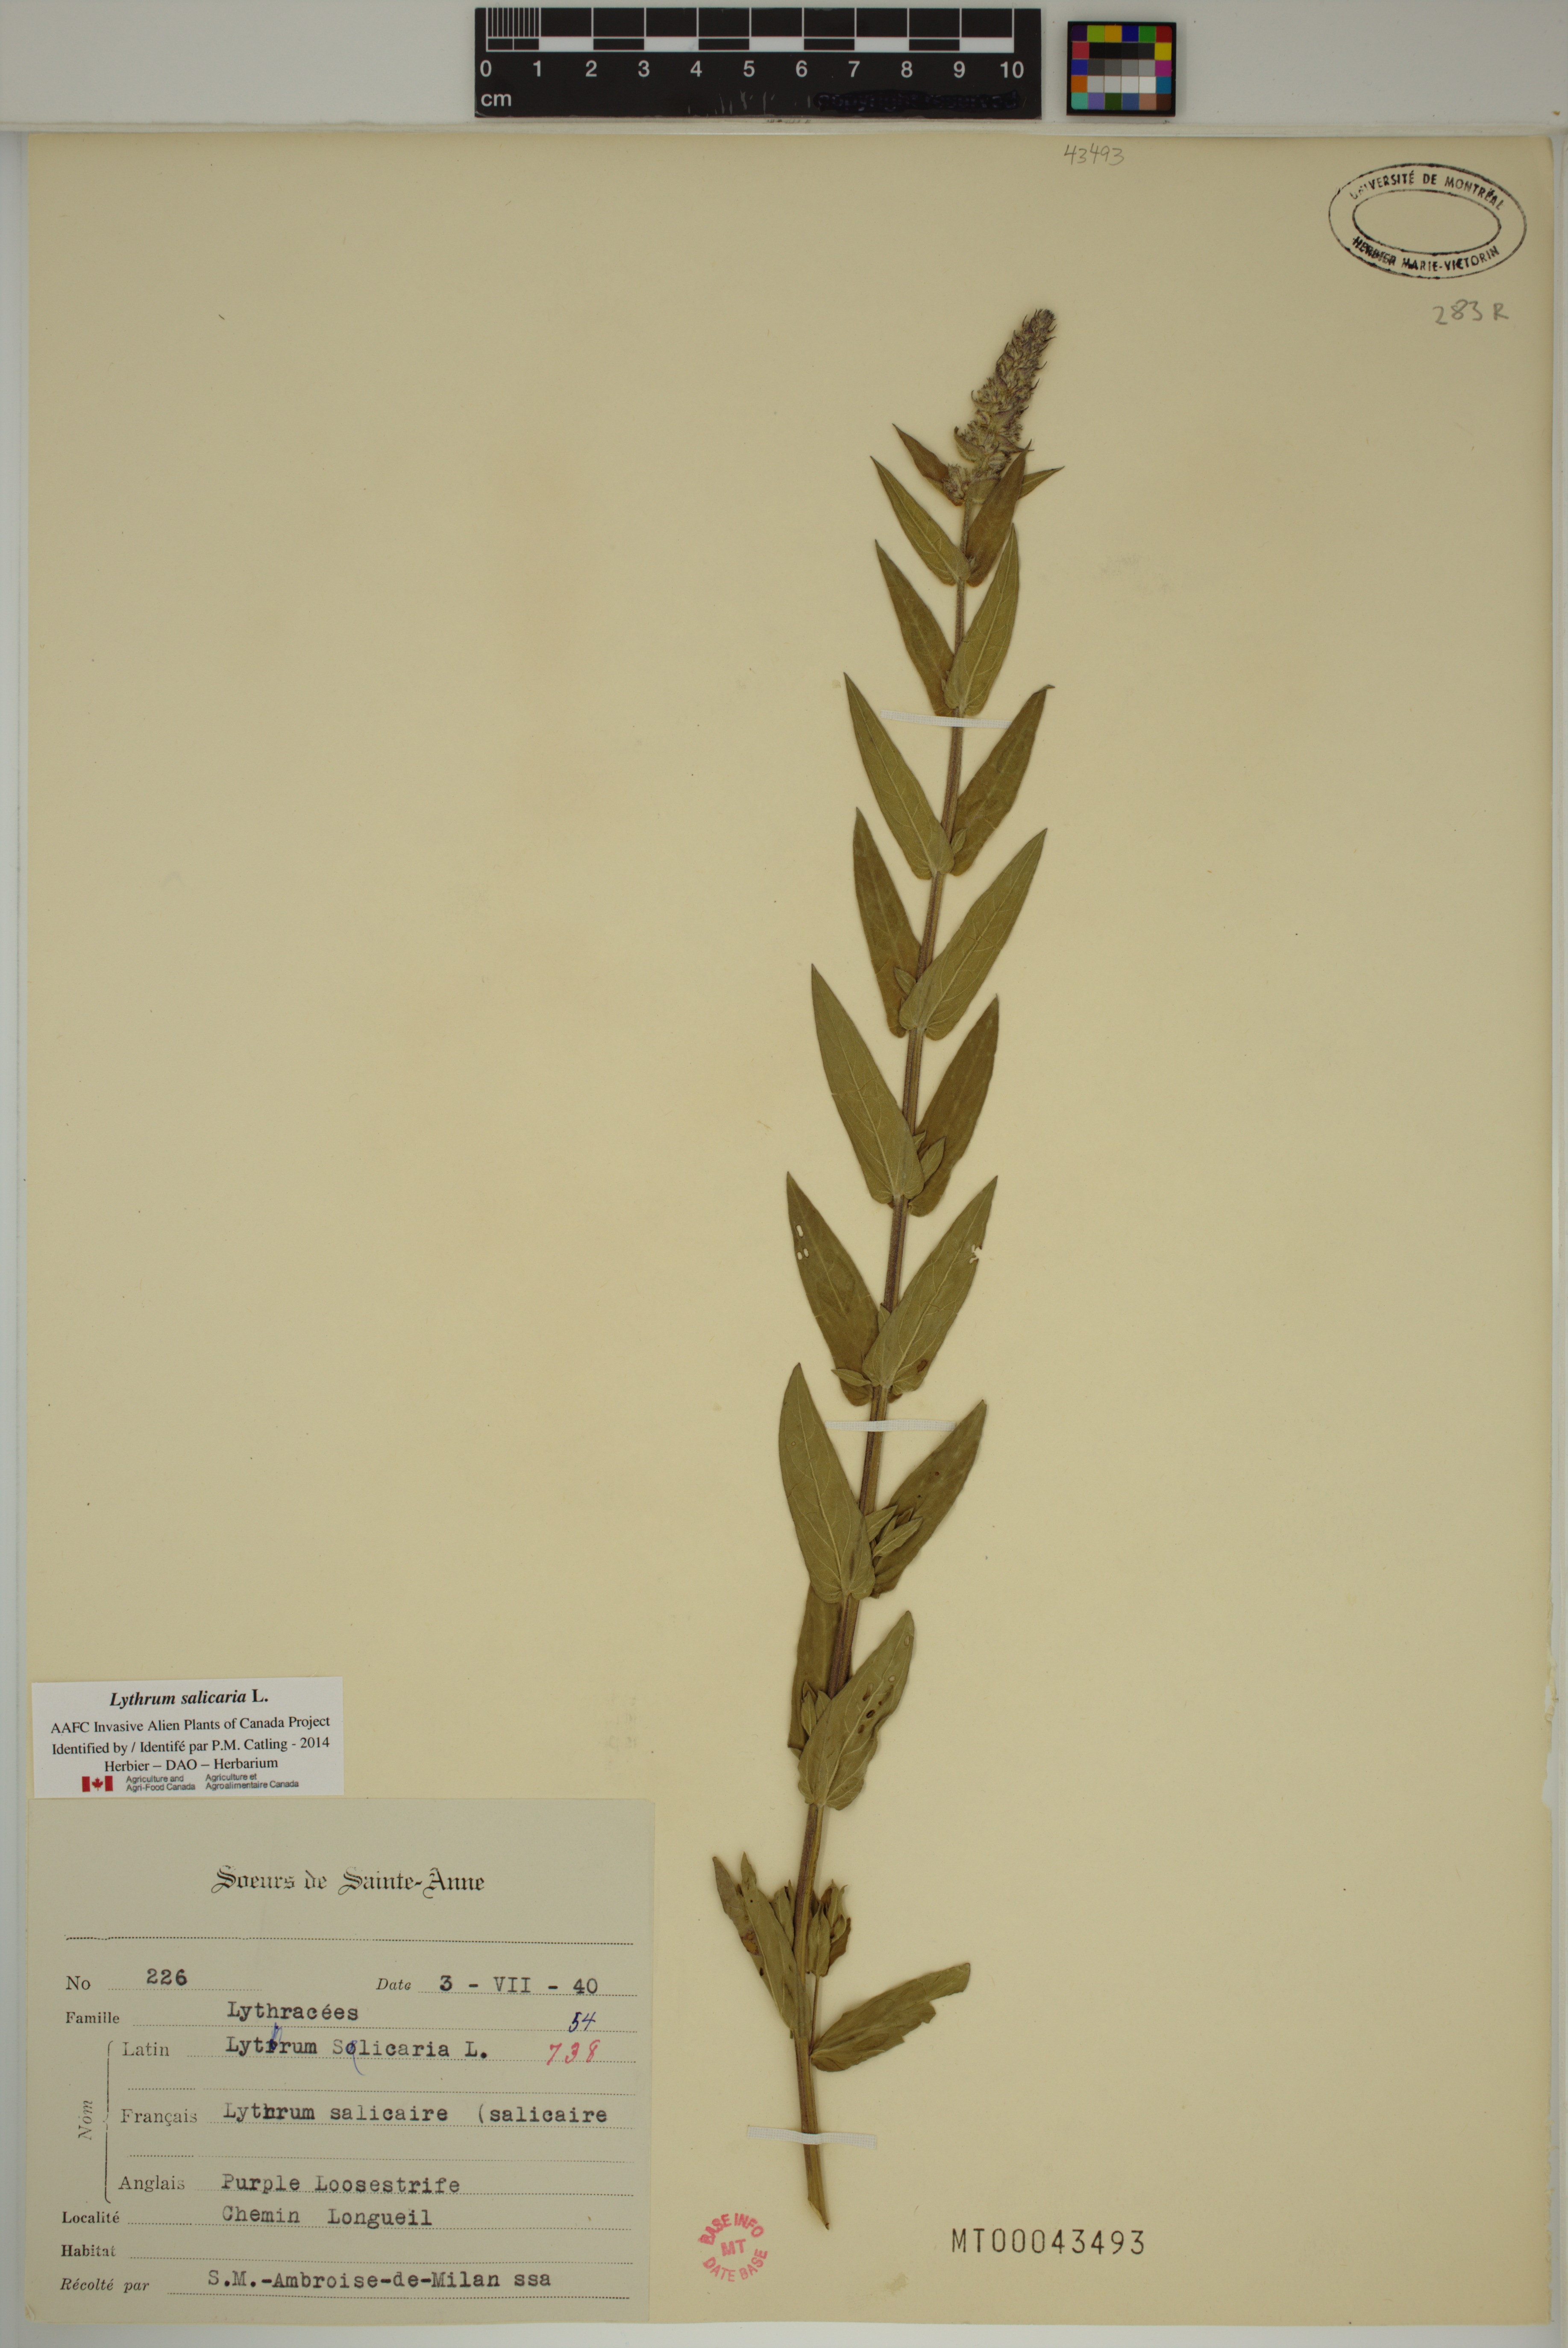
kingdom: Plantae
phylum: Tracheophyta
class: Magnoliopsida
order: Myrtales
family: Lythraceae
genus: Lythrum
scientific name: Lythrum salicaria
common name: Purple loosestrife
